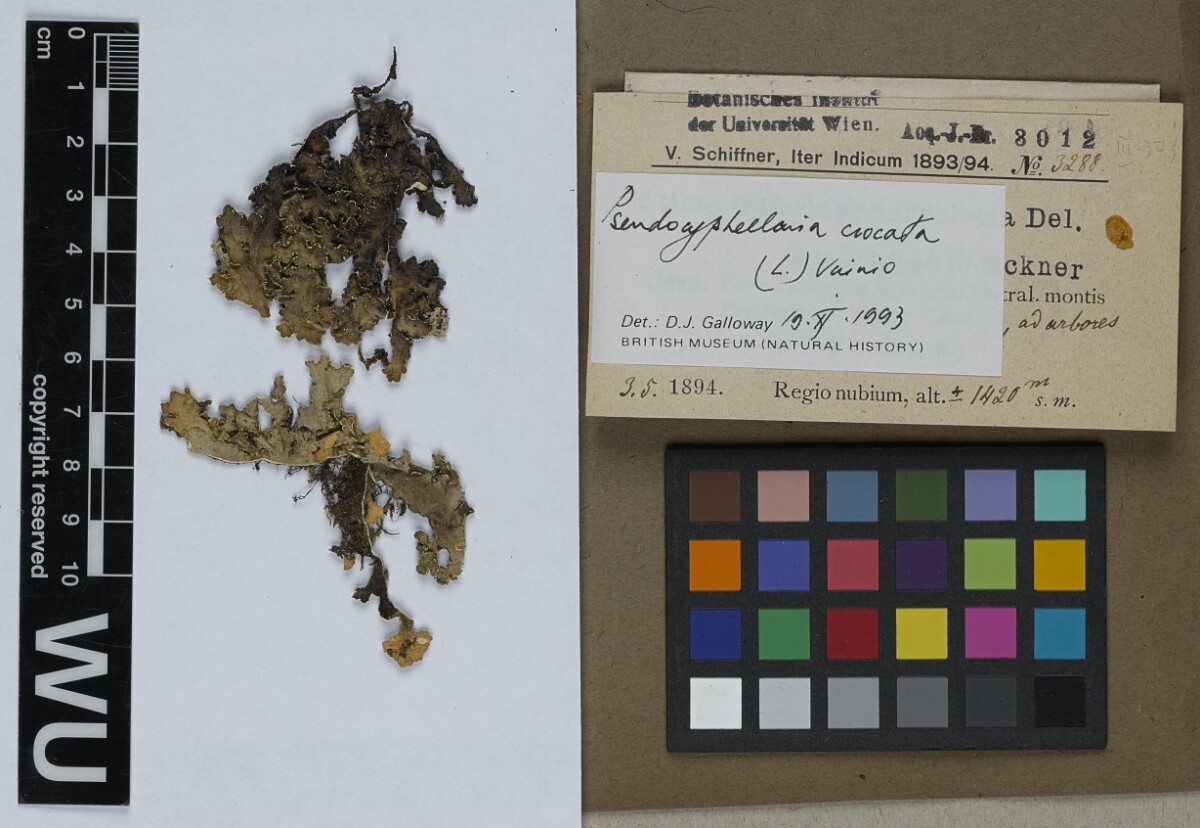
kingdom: Fungi
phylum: Ascomycota
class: Lecanoromycetes
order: Peltigerales
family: Lobariaceae
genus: Pseudocyphellaria
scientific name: Pseudocyphellaria crocata
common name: Golden specklebelly
